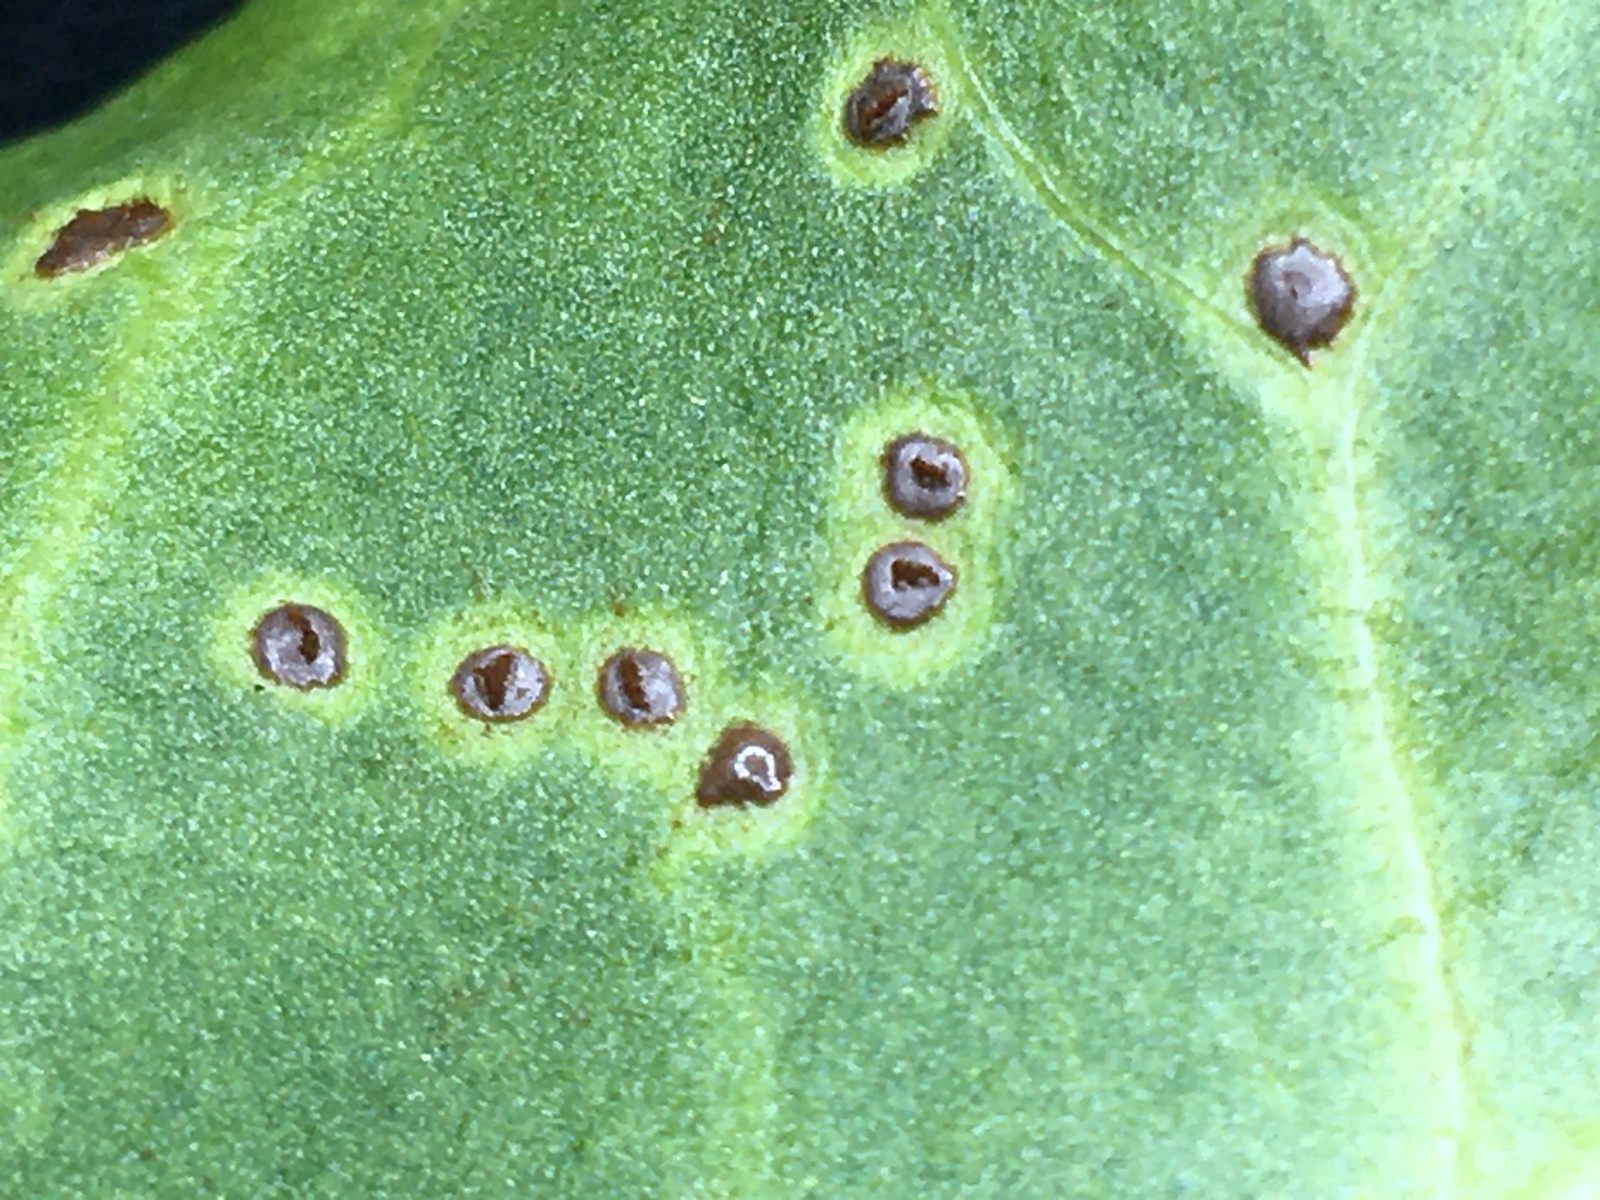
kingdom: Fungi
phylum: Basidiomycota
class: Pucciniomycetes
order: Pucciniales
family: Pucciniaceae
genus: Uromyces
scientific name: Uromyces betae
